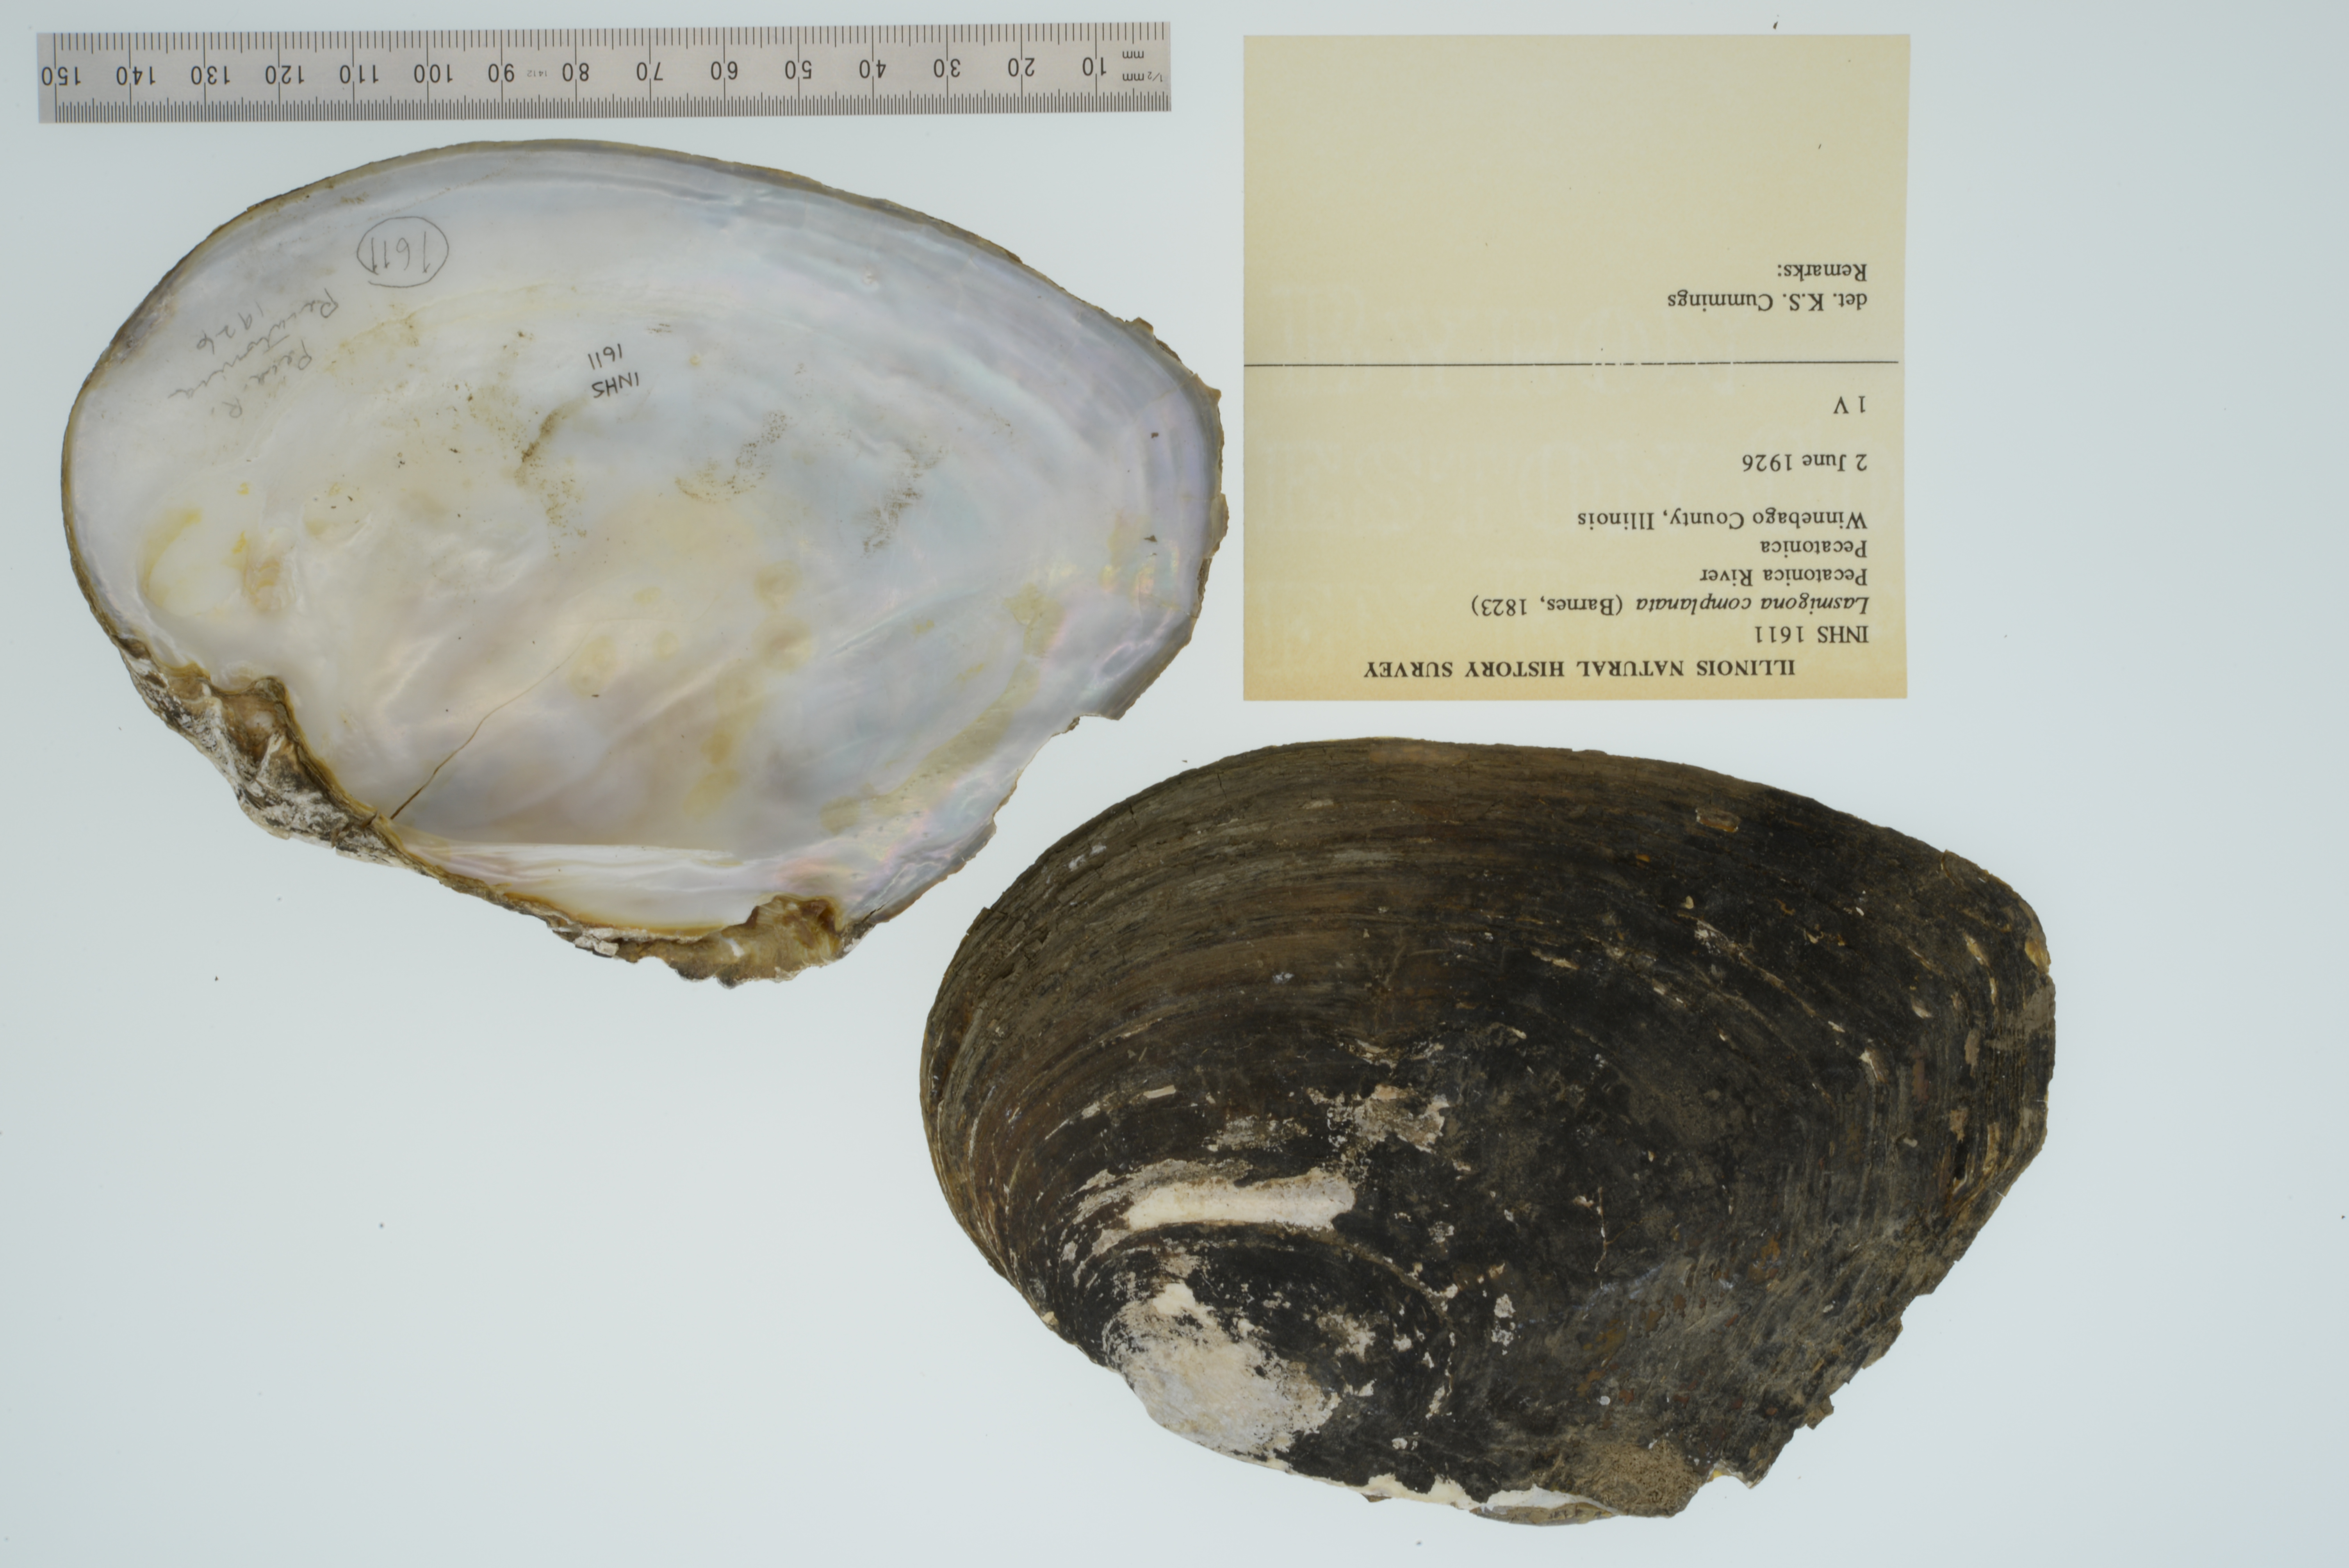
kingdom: Animalia
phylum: Mollusca
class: Bivalvia
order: Unionida
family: Unionidae
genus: Lasmigona
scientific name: Lasmigona complanata
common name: White heelsplitter
